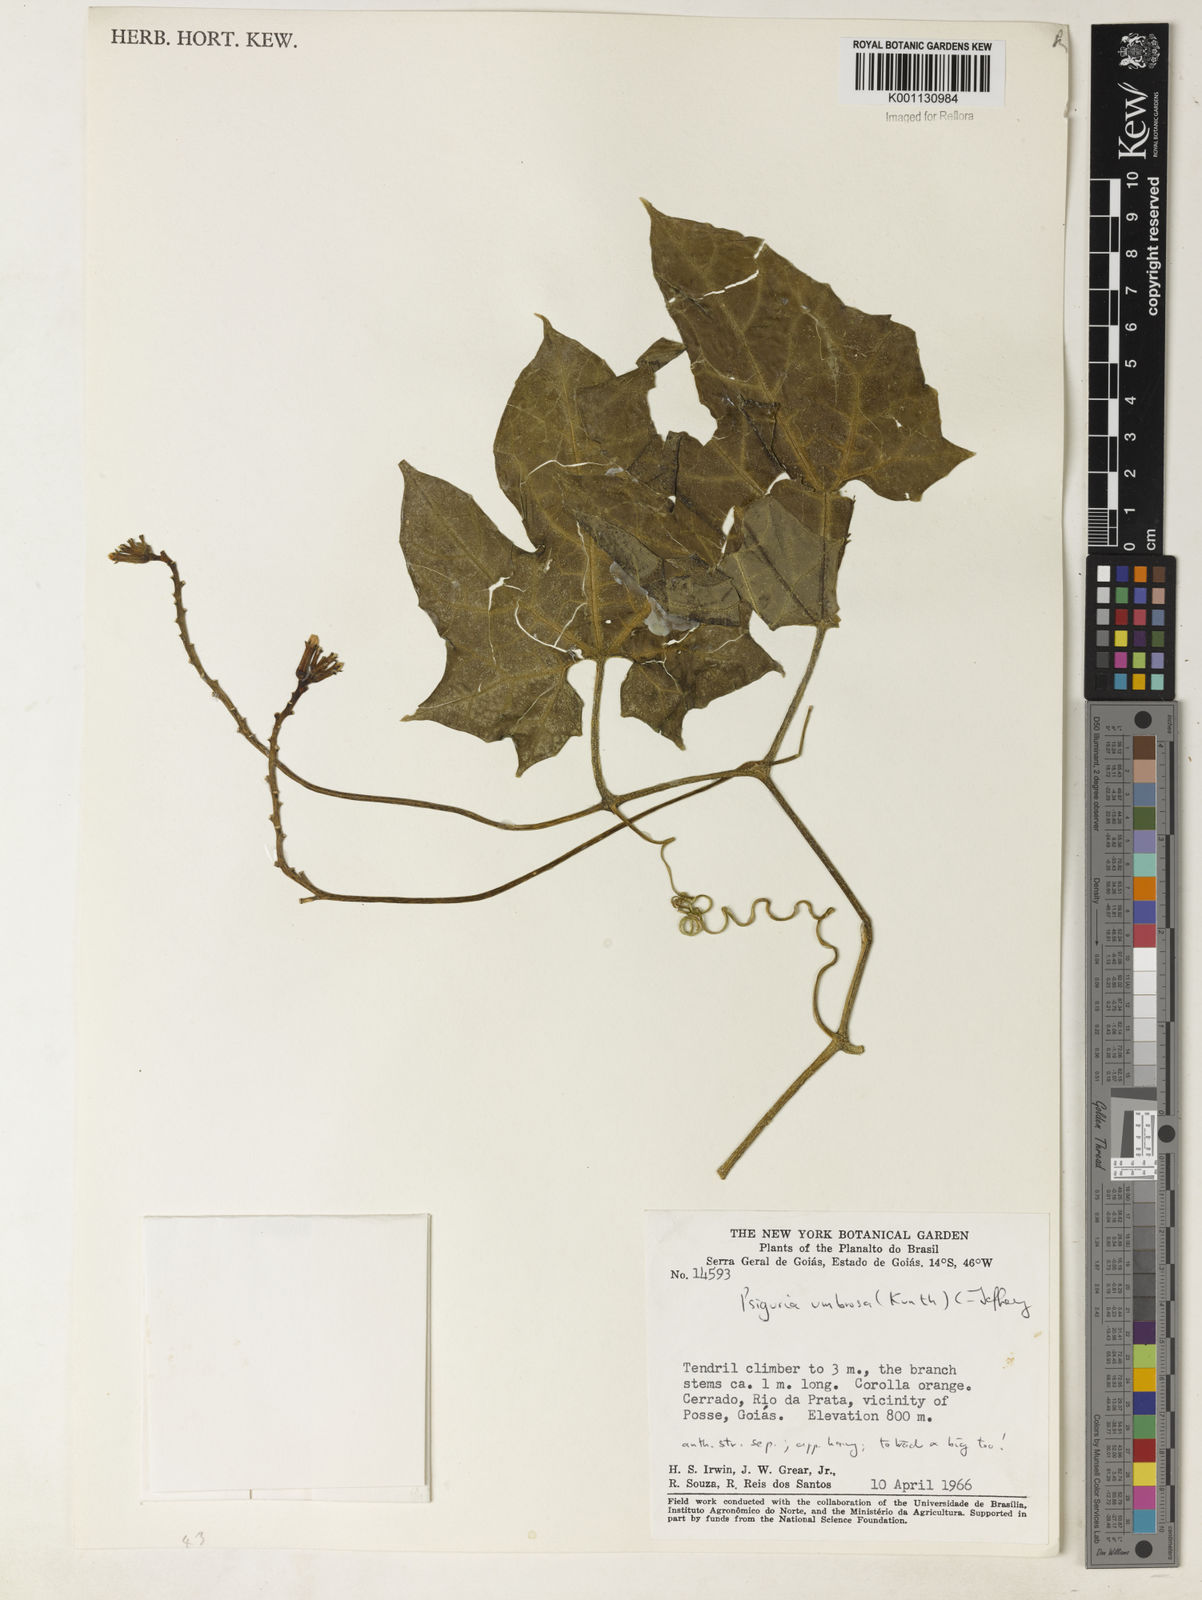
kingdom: Plantae
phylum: Tracheophyta
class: Magnoliopsida
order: Cucurbitales
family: Cucurbitaceae
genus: Psiguria
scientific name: Psiguria umbrosa
